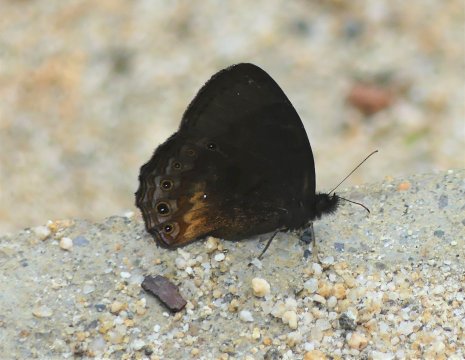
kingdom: Animalia
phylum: Arthropoda
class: Insecta
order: Lepidoptera
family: Nymphalidae
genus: Eretris
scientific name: Eretris porphyria
